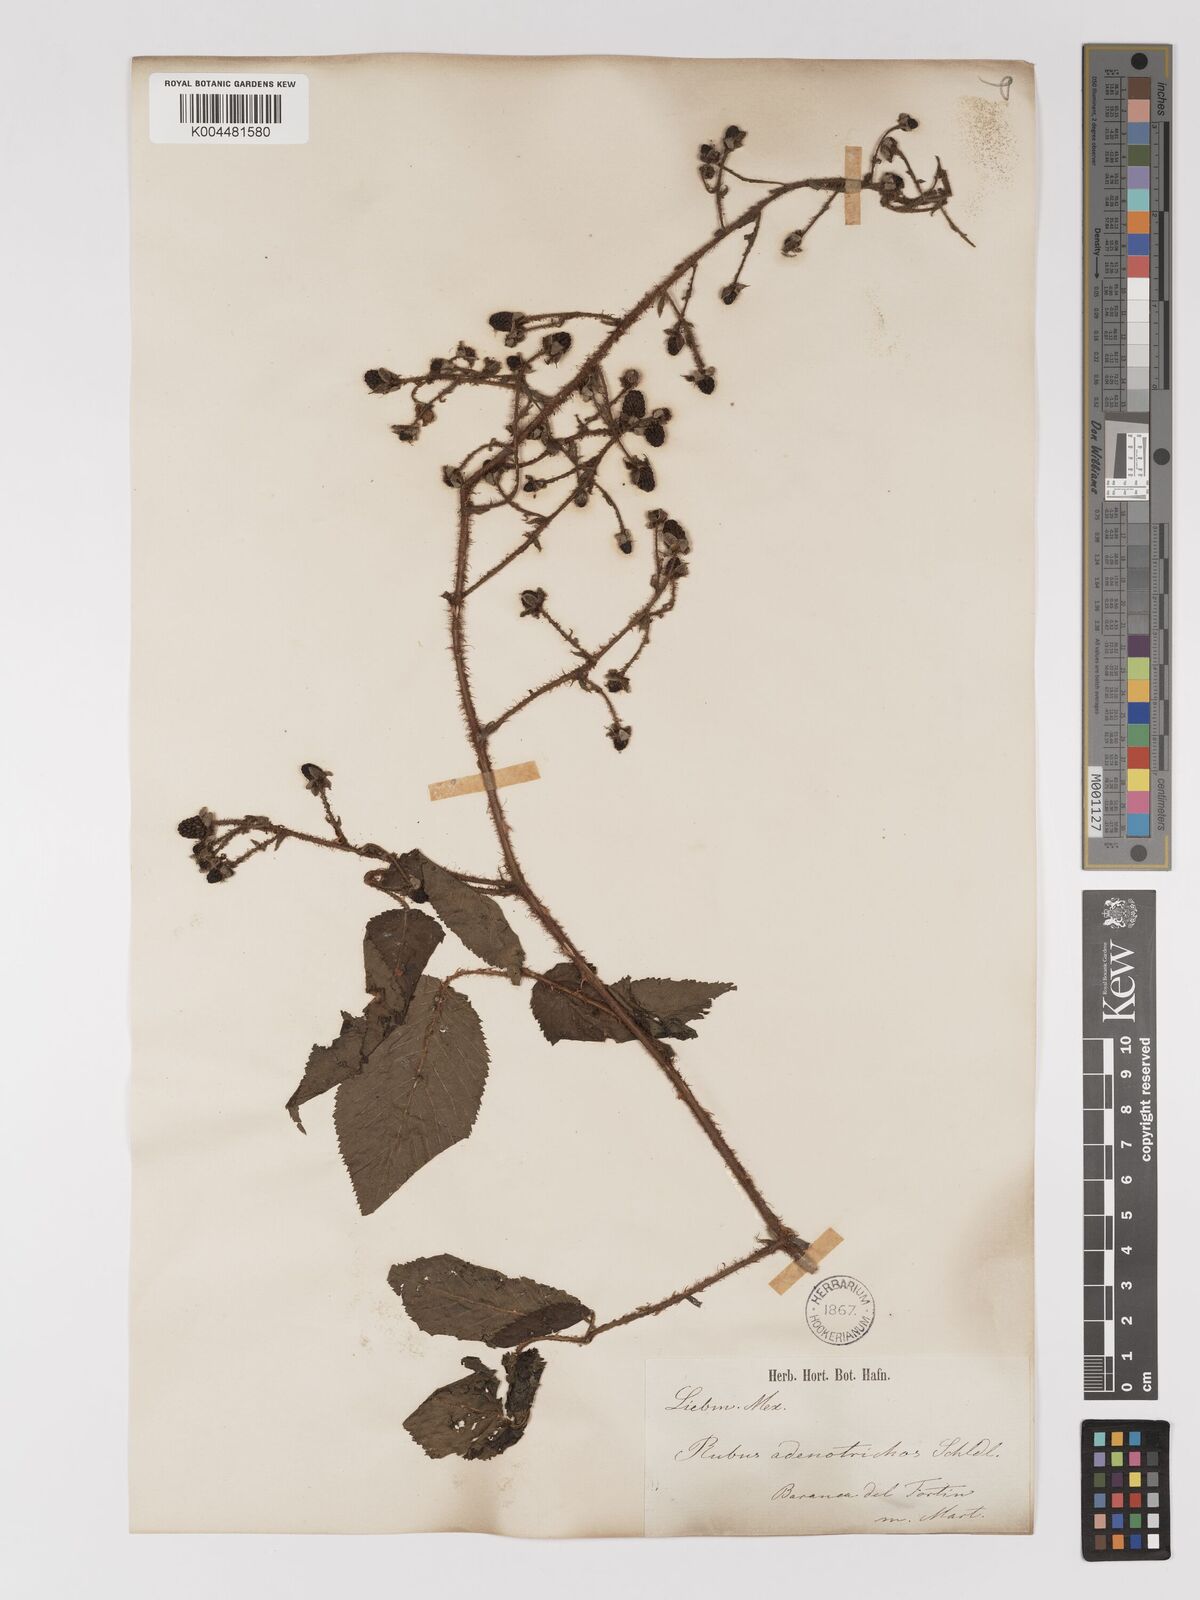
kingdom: Plantae
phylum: Tracheophyta
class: Magnoliopsida
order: Rosales
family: Rosaceae
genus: Rubus
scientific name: Rubus adenotrichos
